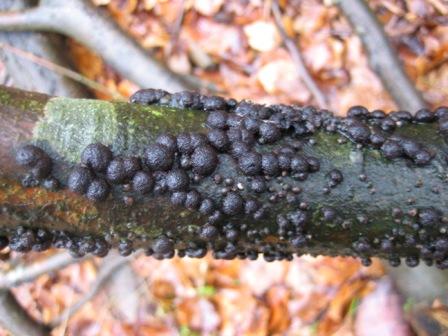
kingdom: Fungi
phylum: Ascomycota
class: Sordariomycetes
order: Xylariales
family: Hypoxylaceae
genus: Hypoxylon
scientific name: Hypoxylon fragiforme
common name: kuljordbær
